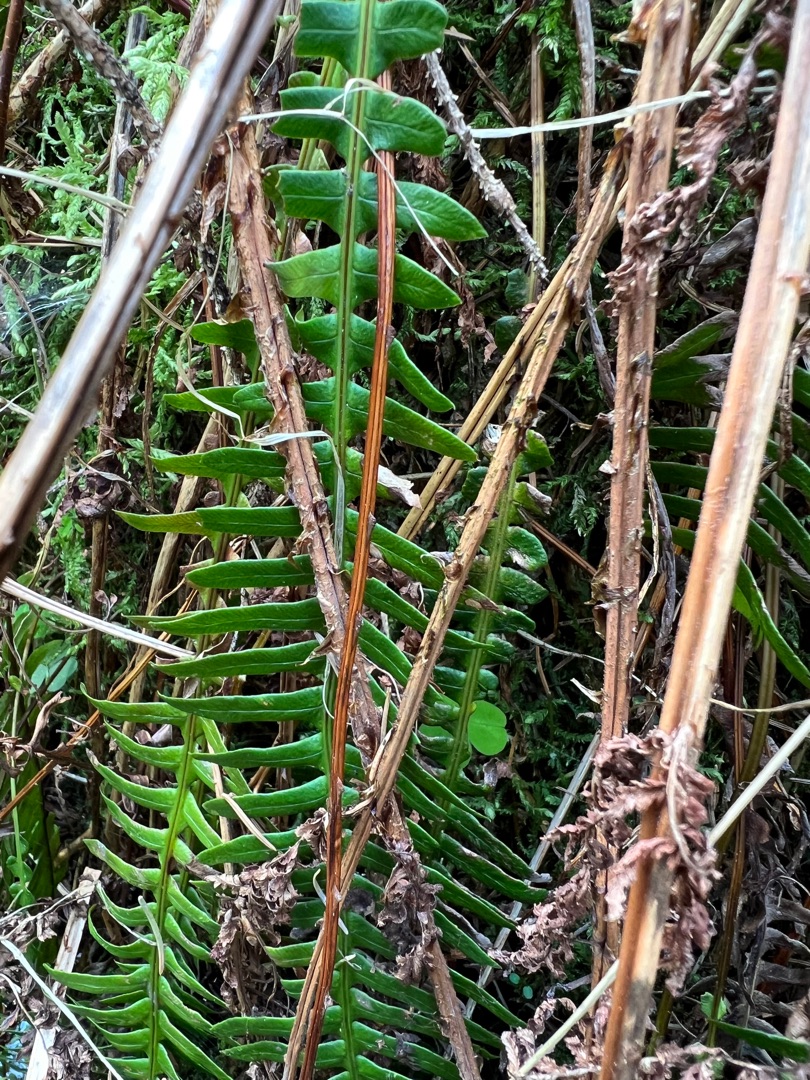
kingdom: Plantae
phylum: Tracheophyta
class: Polypodiopsida
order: Polypodiales
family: Blechnaceae
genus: Struthiopteris
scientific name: Struthiopteris spicant
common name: Kambregne
